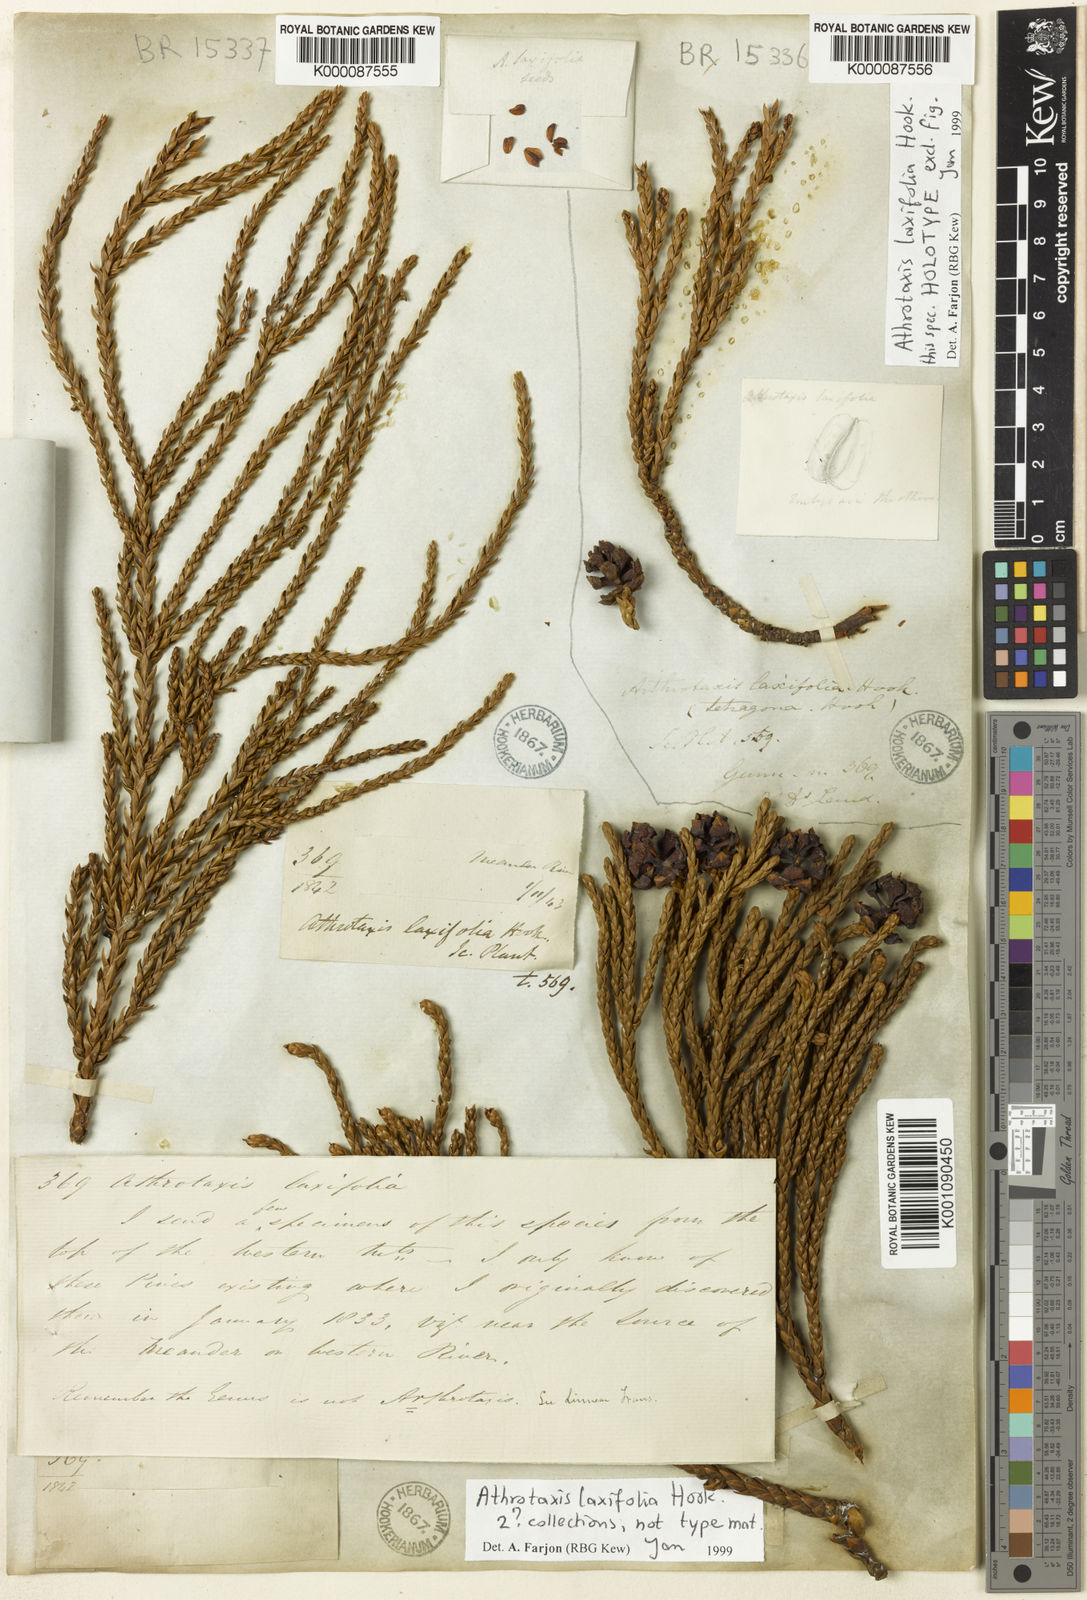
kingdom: Plantae
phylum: Tracheophyta
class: Pinopsida
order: Pinales
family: Cupressaceae
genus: Athrotaxis
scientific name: Athrotaxis laxifolia
